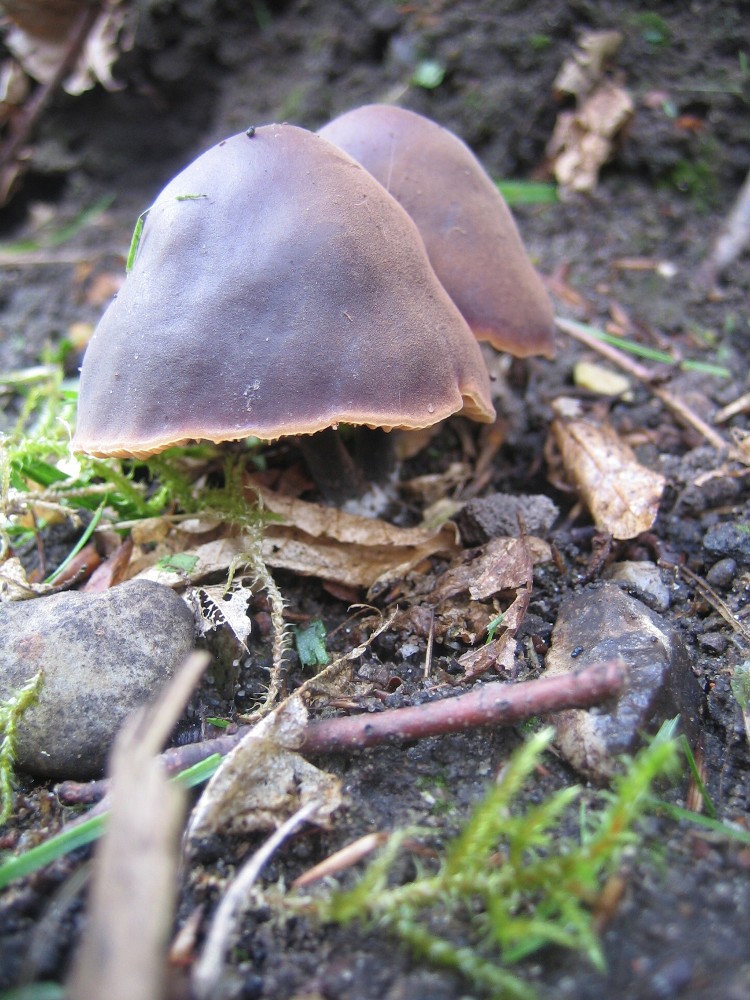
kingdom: Fungi
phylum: Basidiomycota
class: Agaricomycetes
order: Agaricales
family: Macrocystidiaceae
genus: Macrocystidia
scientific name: Macrocystidia
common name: agurkehat
